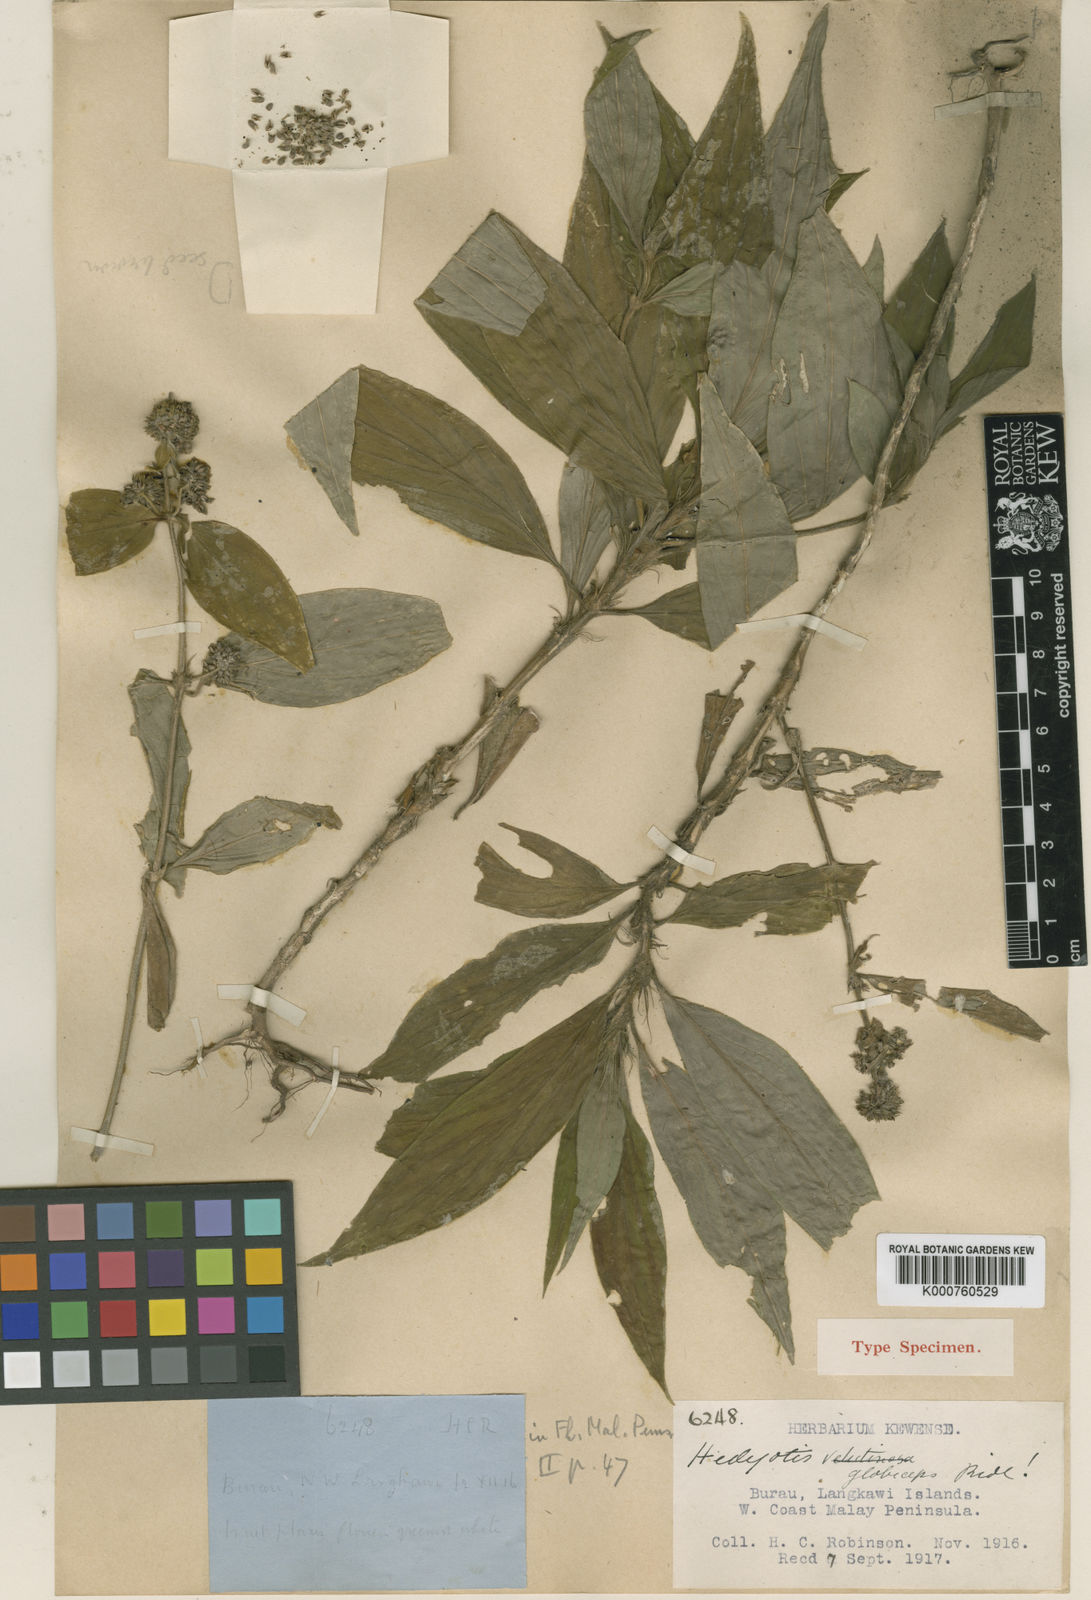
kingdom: Plantae
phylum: Tracheophyta
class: Magnoliopsida
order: Gentianales
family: Rubiaceae
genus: Oldenlandia
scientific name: Oldenlandia
